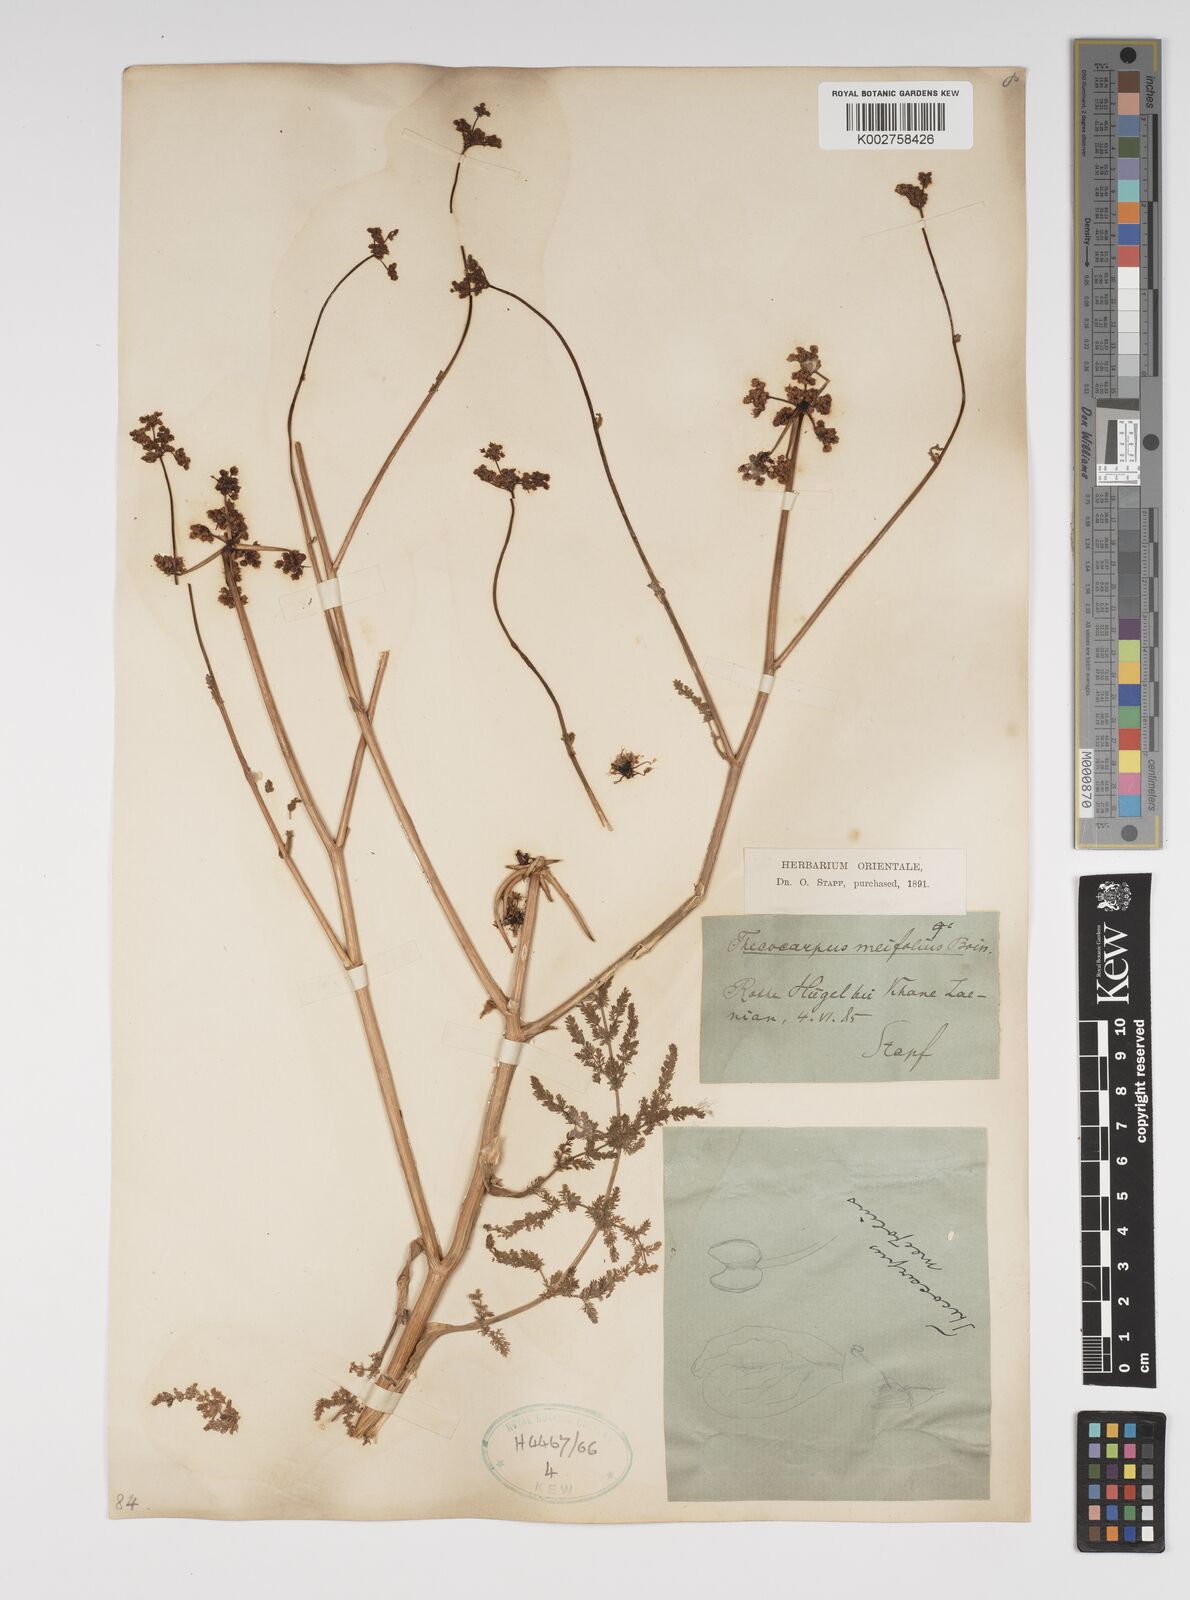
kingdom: Plantae
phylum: Tracheophyta
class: Magnoliopsida
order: Apiales
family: Apiaceae
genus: Thecocarpus
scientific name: Thecocarpus meifolius
